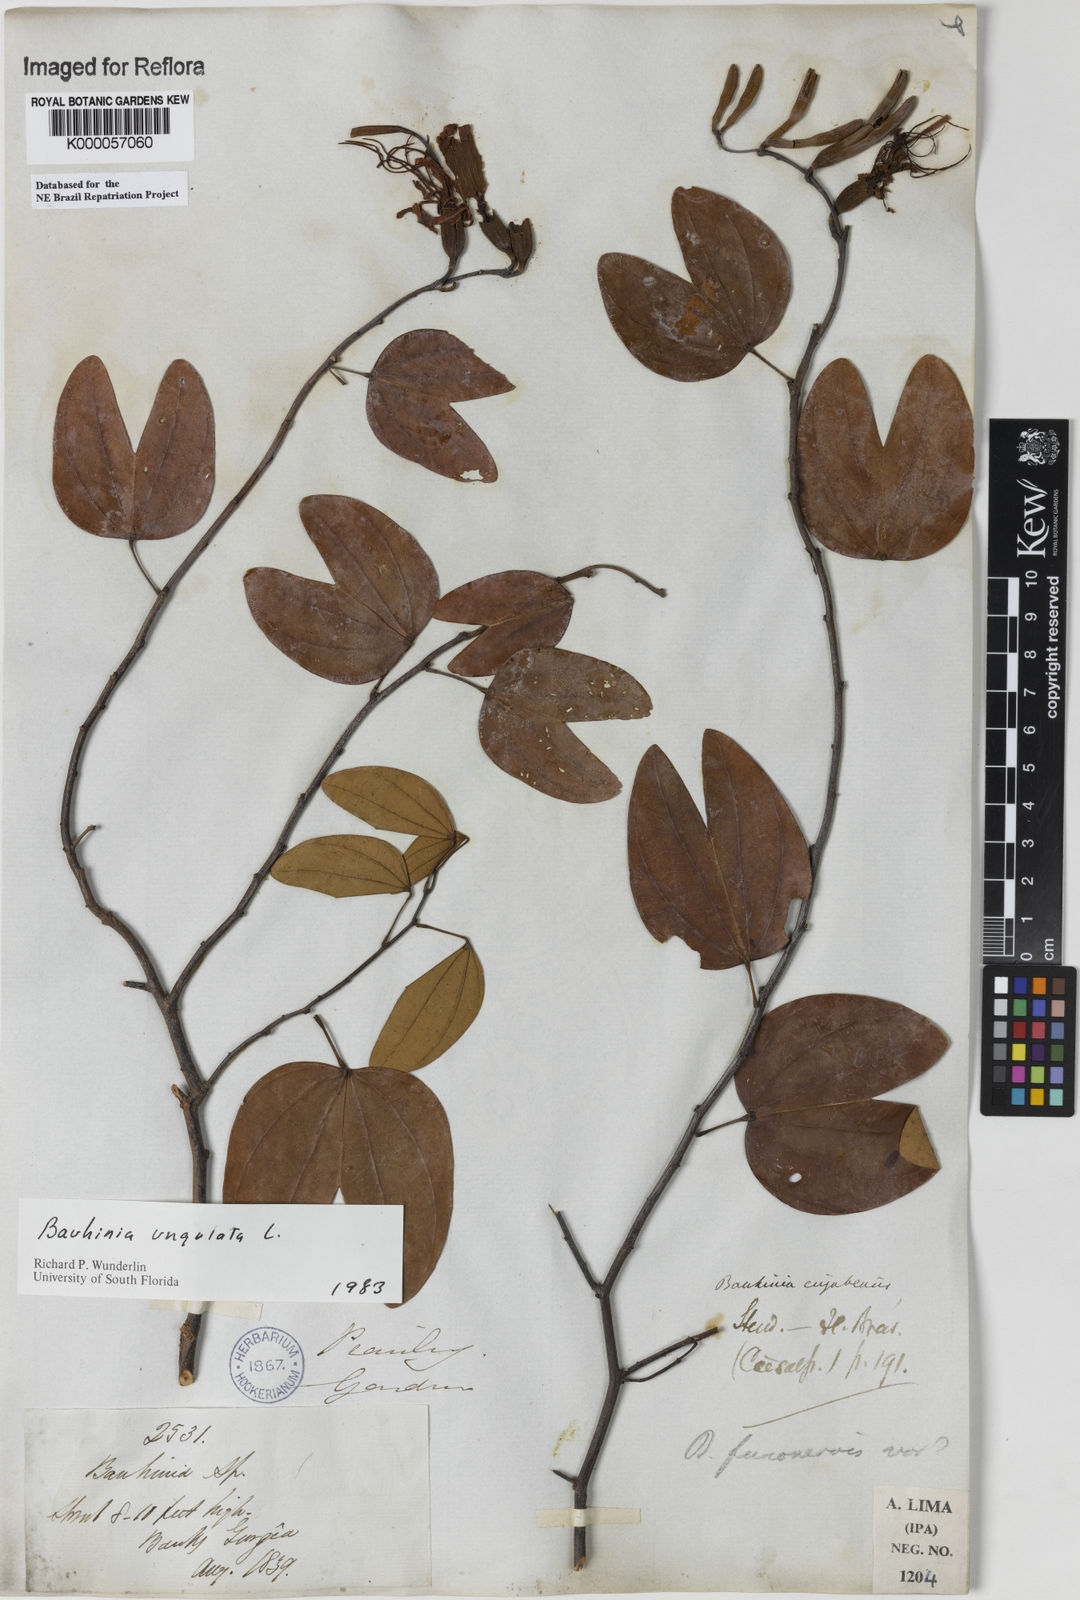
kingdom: Plantae
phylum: Tracheophyta
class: Magnoliopsida
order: Fabales
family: Fabaceae
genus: Bauhinia
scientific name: Bauhinia ungulata
